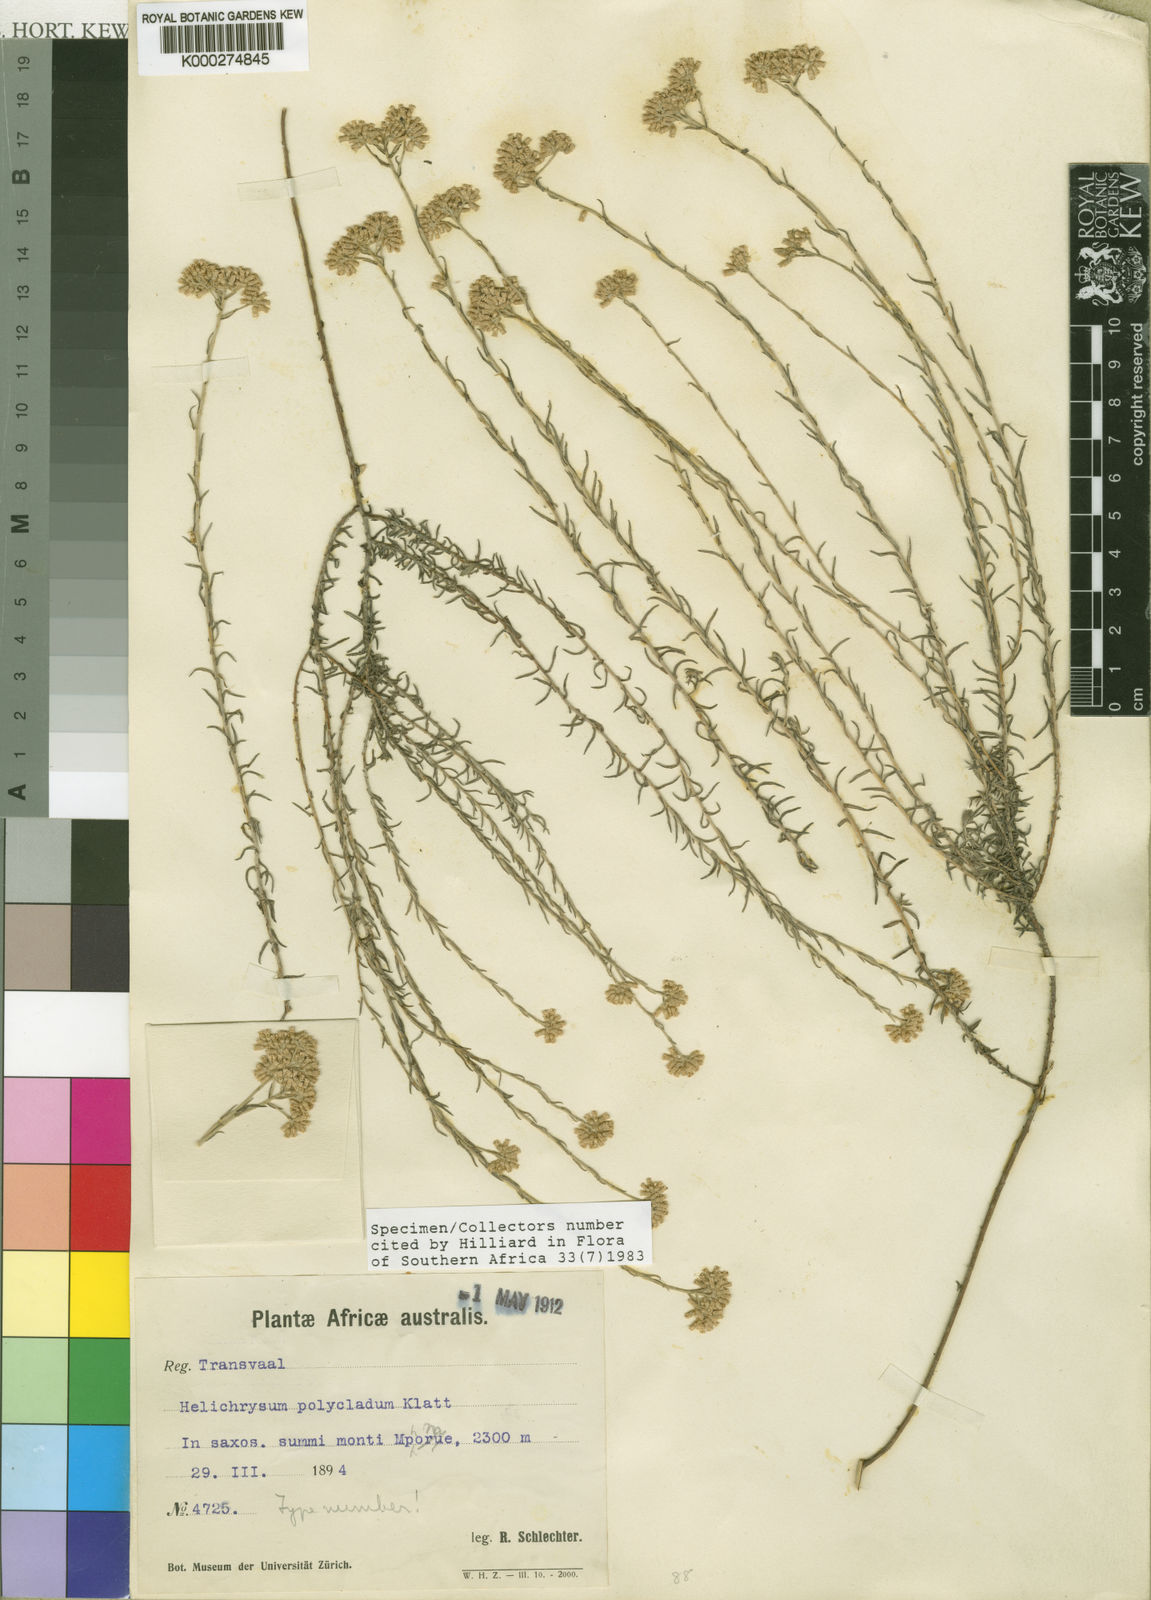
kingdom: Plantae
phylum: Tracheophyta
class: Magnoliopsida
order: Asterales
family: Asteraceae
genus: Helichrysum
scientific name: Helichrysum polycladum
